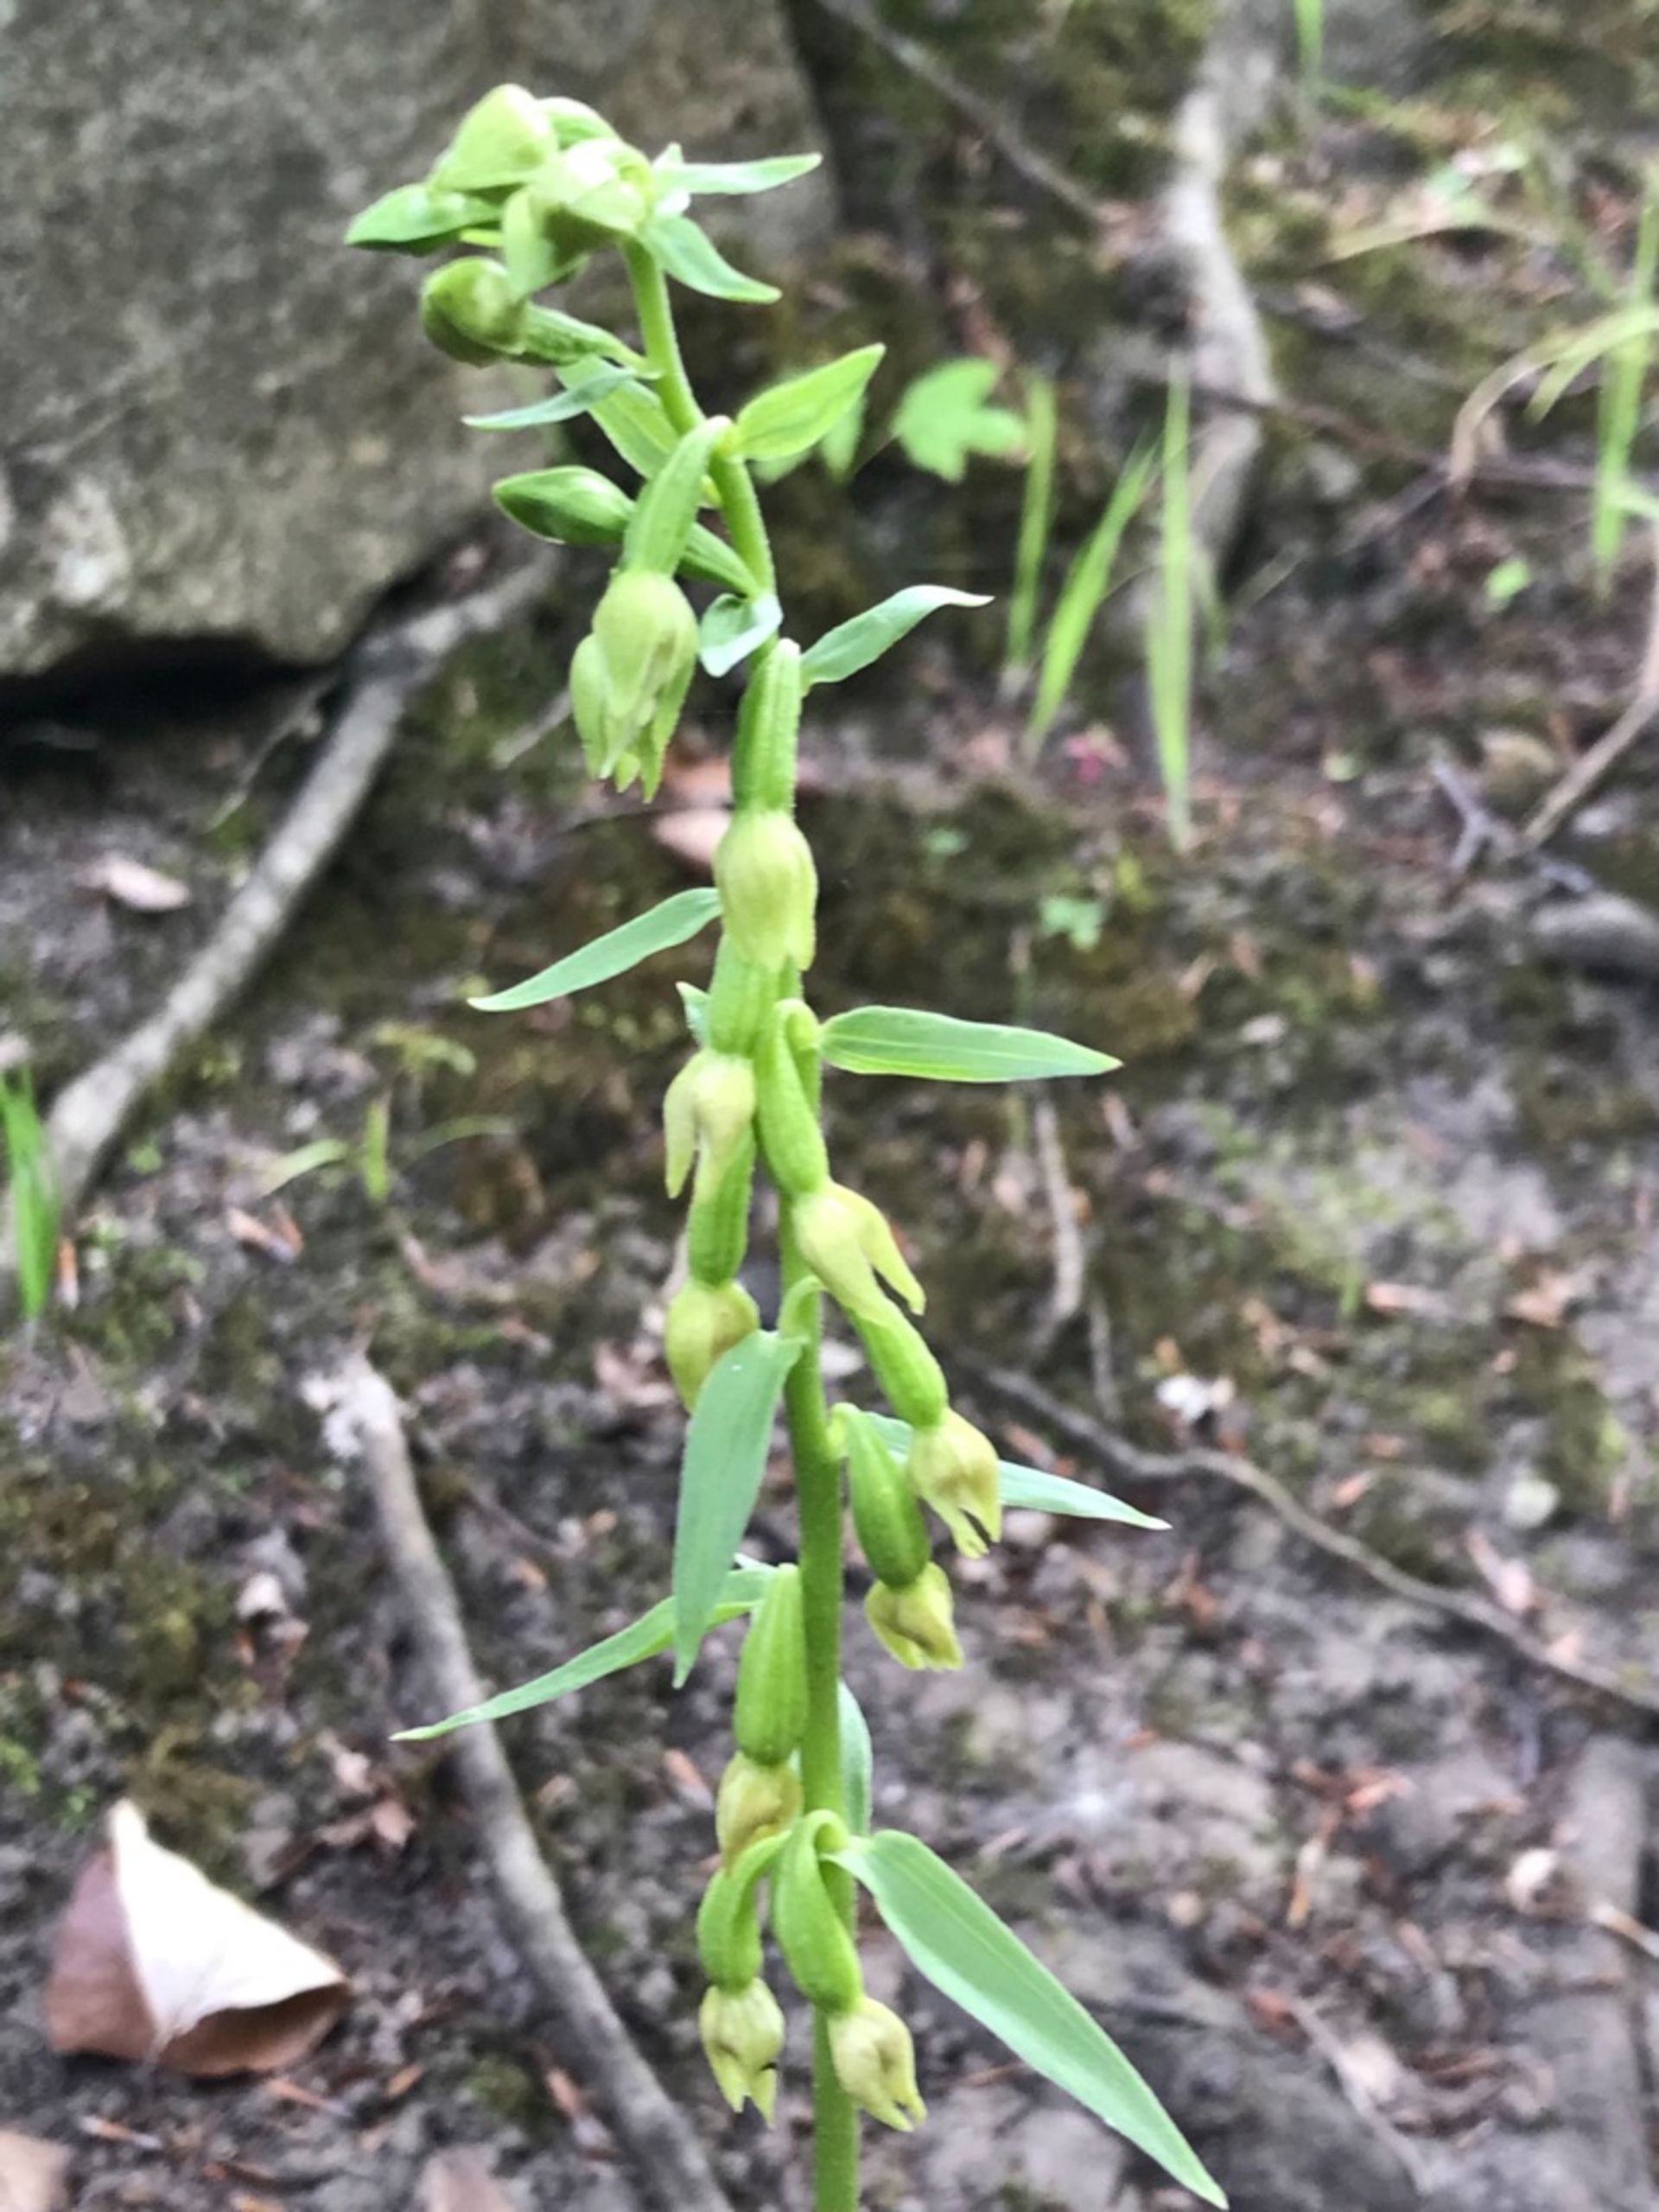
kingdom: Plantae
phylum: Tracheophyta
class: Liliopsida
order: Asparagales
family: Orchidaceae
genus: Epipactis
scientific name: Epipactis phyllanthes
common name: Nikkende hullæbe
